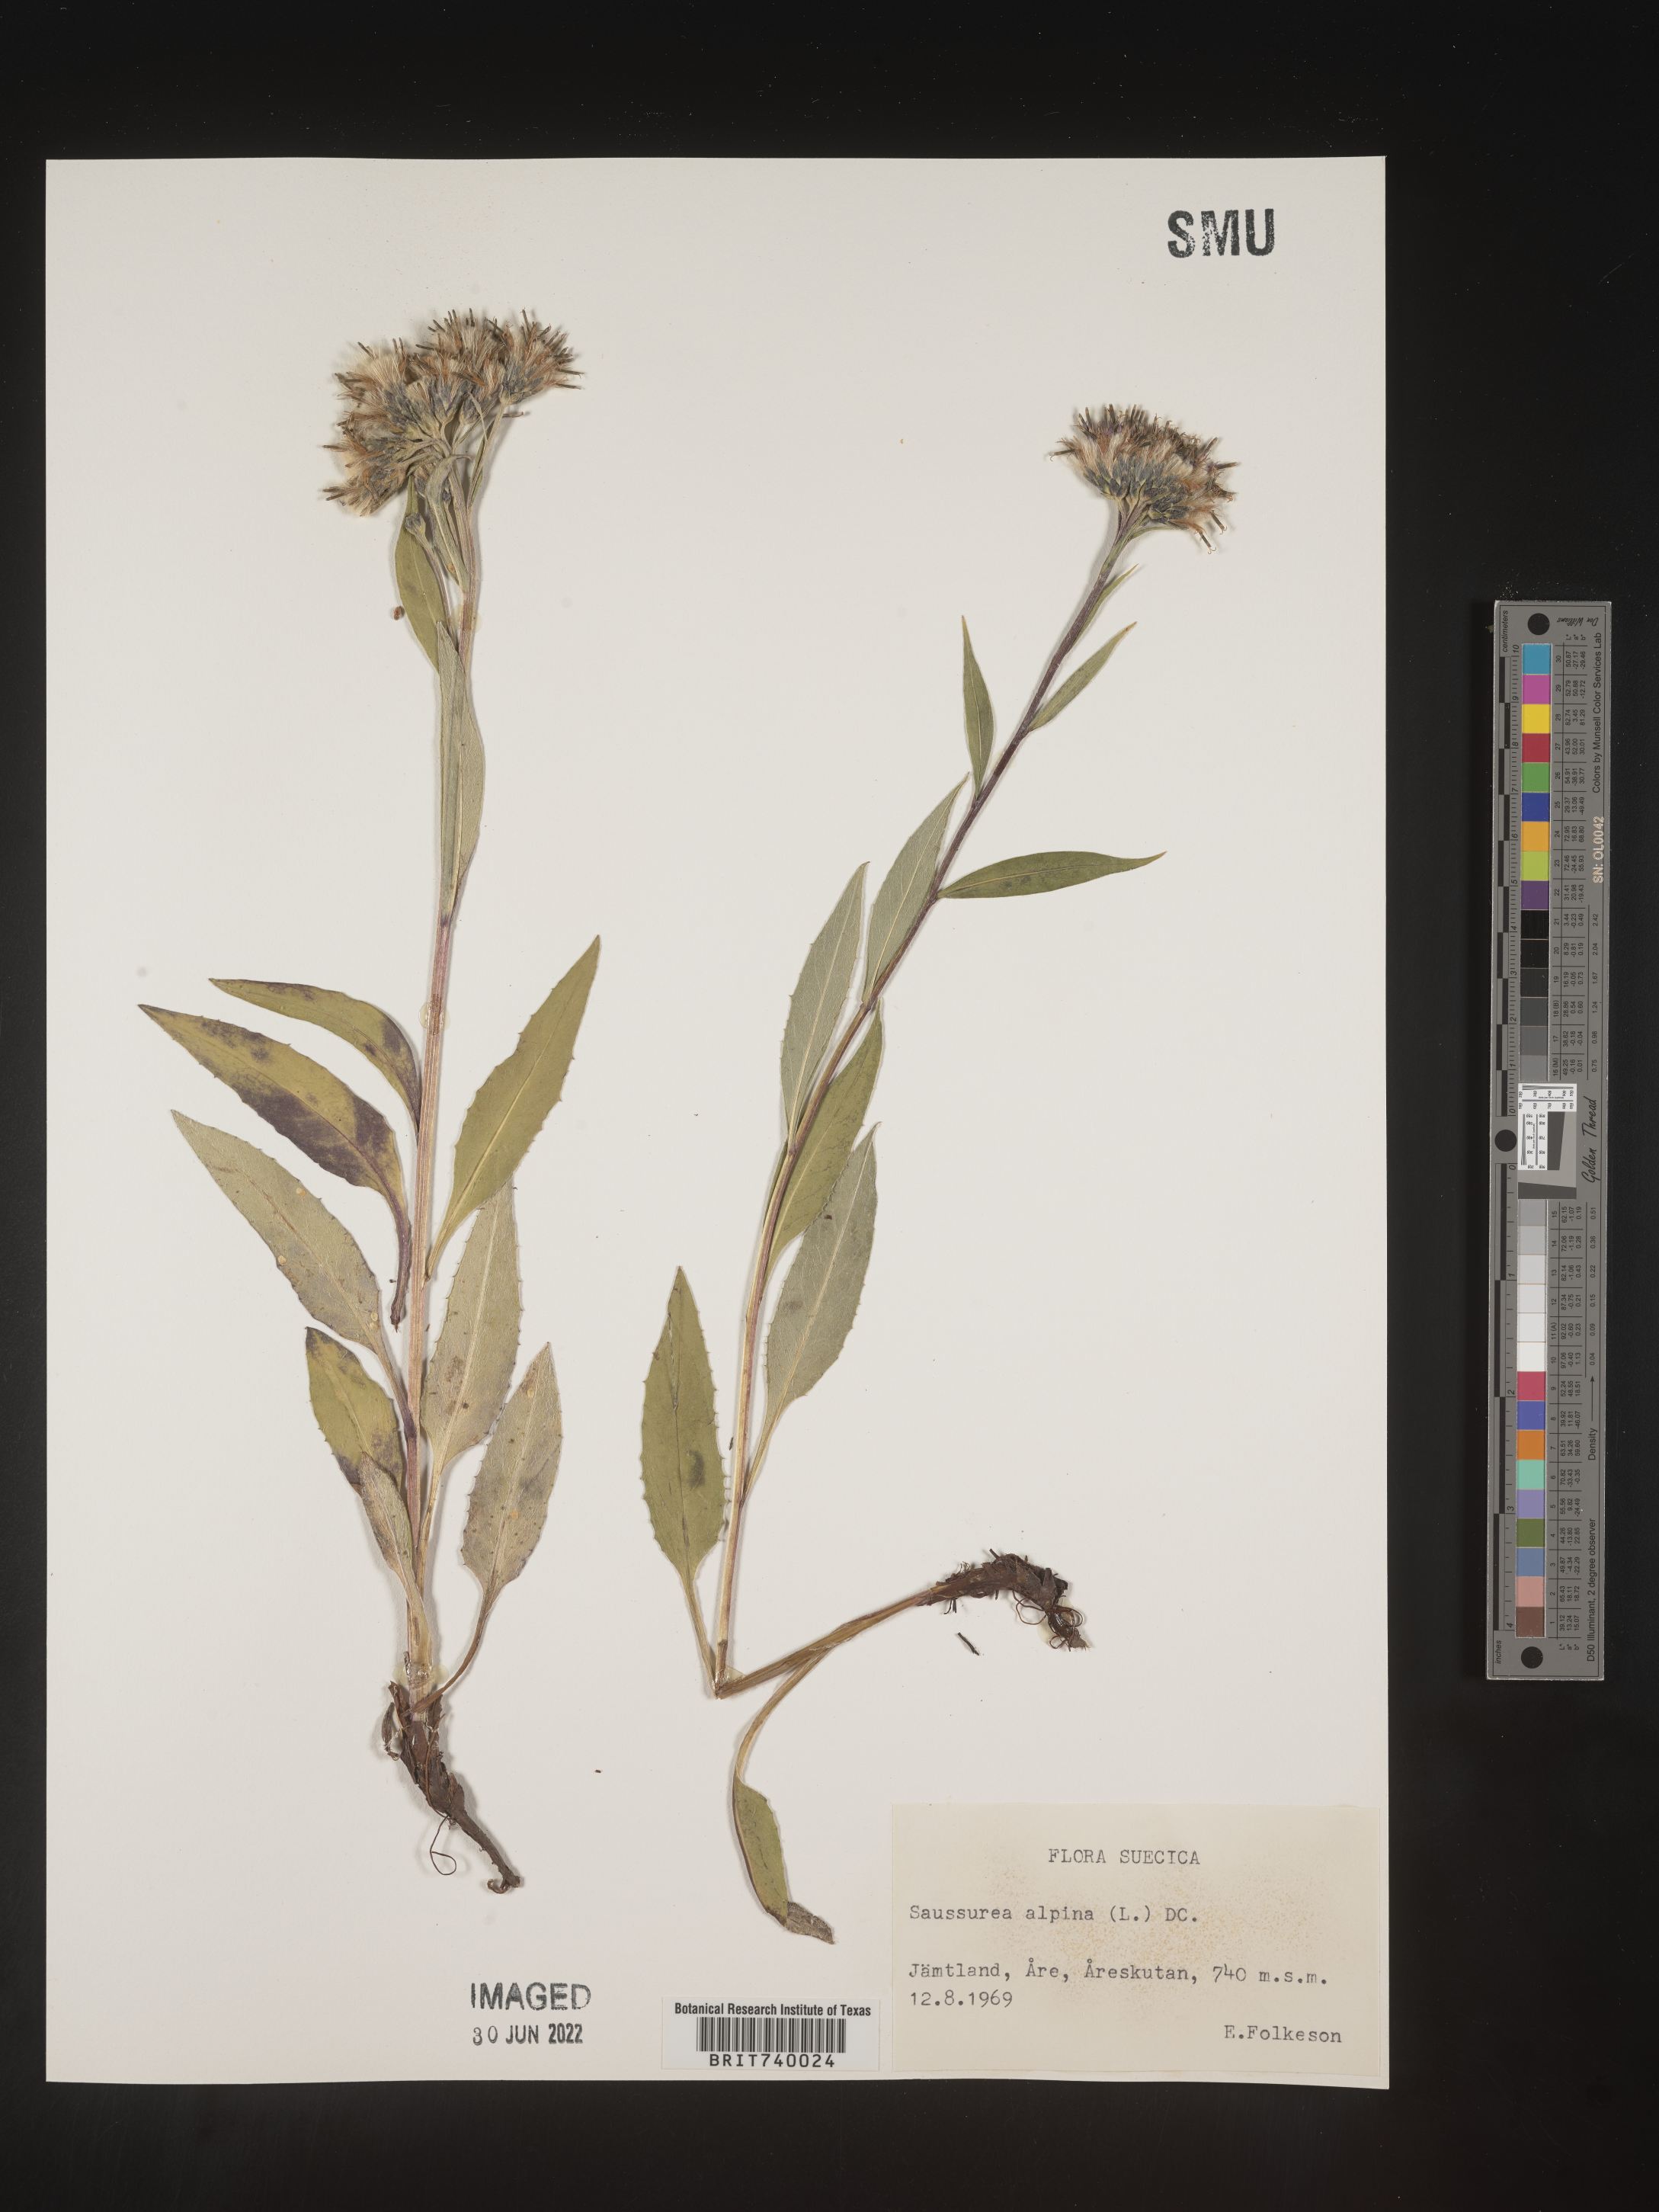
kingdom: Plantae
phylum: Tracheophyta
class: Magnoliopsida
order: Asterales
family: Asteraceae
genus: Saussurea
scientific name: Saussurea
